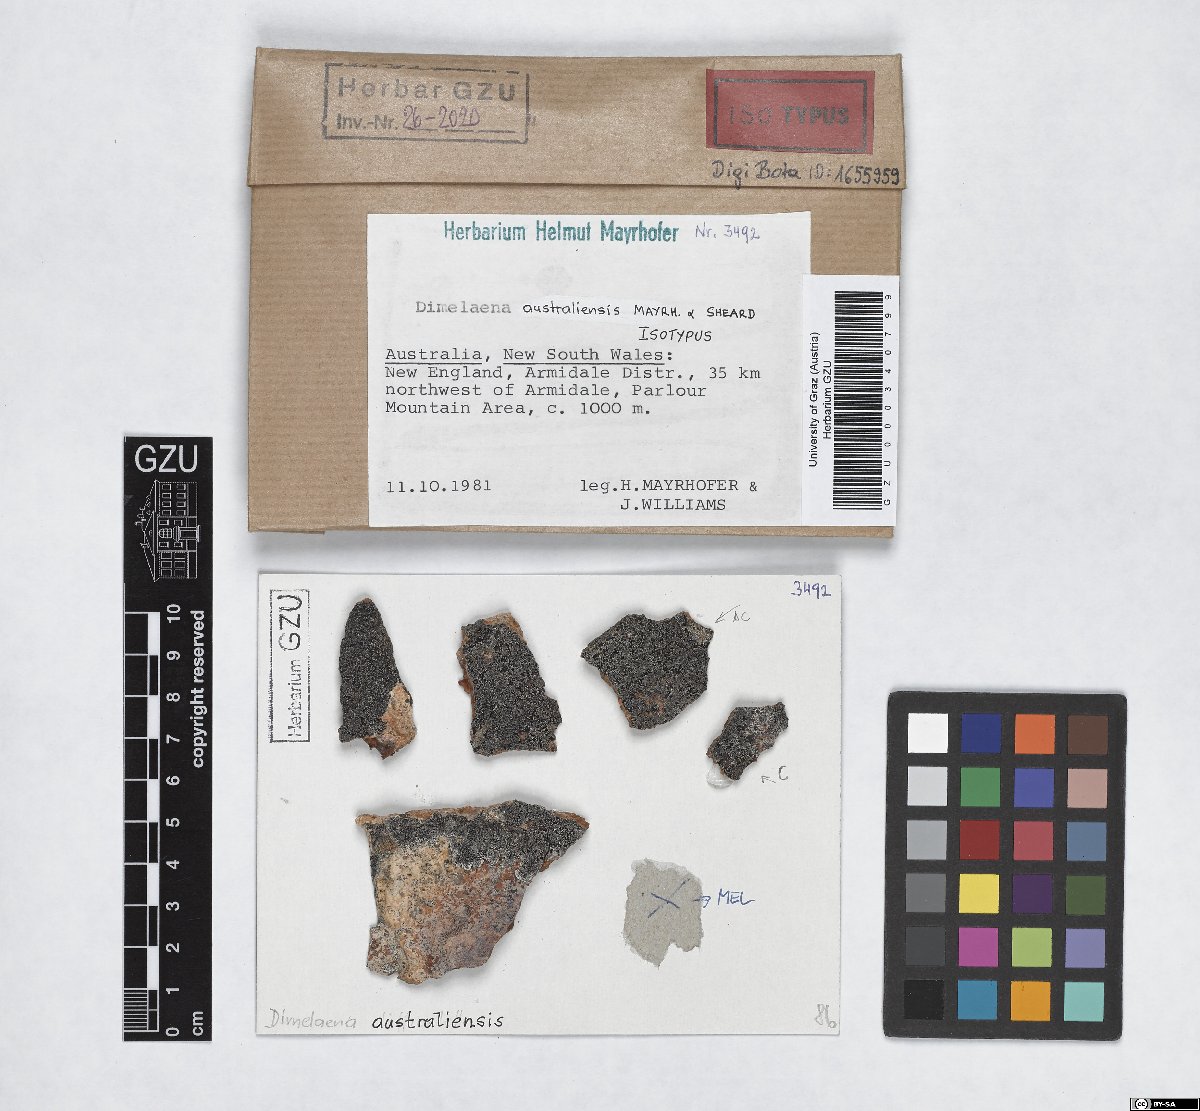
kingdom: Fungi
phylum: Ascomycota
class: Lecanoromycetes
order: Caliciales
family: Caliciaceae
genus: Dimelaena
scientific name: Dimelaena australiensis
